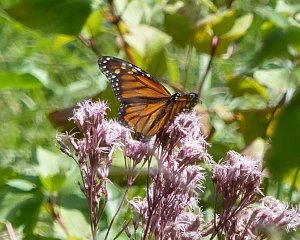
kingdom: Animalia
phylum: Arthropoda
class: Insecta
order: Lepidoptera
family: Nymphalidae
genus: Danaus
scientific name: Danaus plexippus
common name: Monarch
